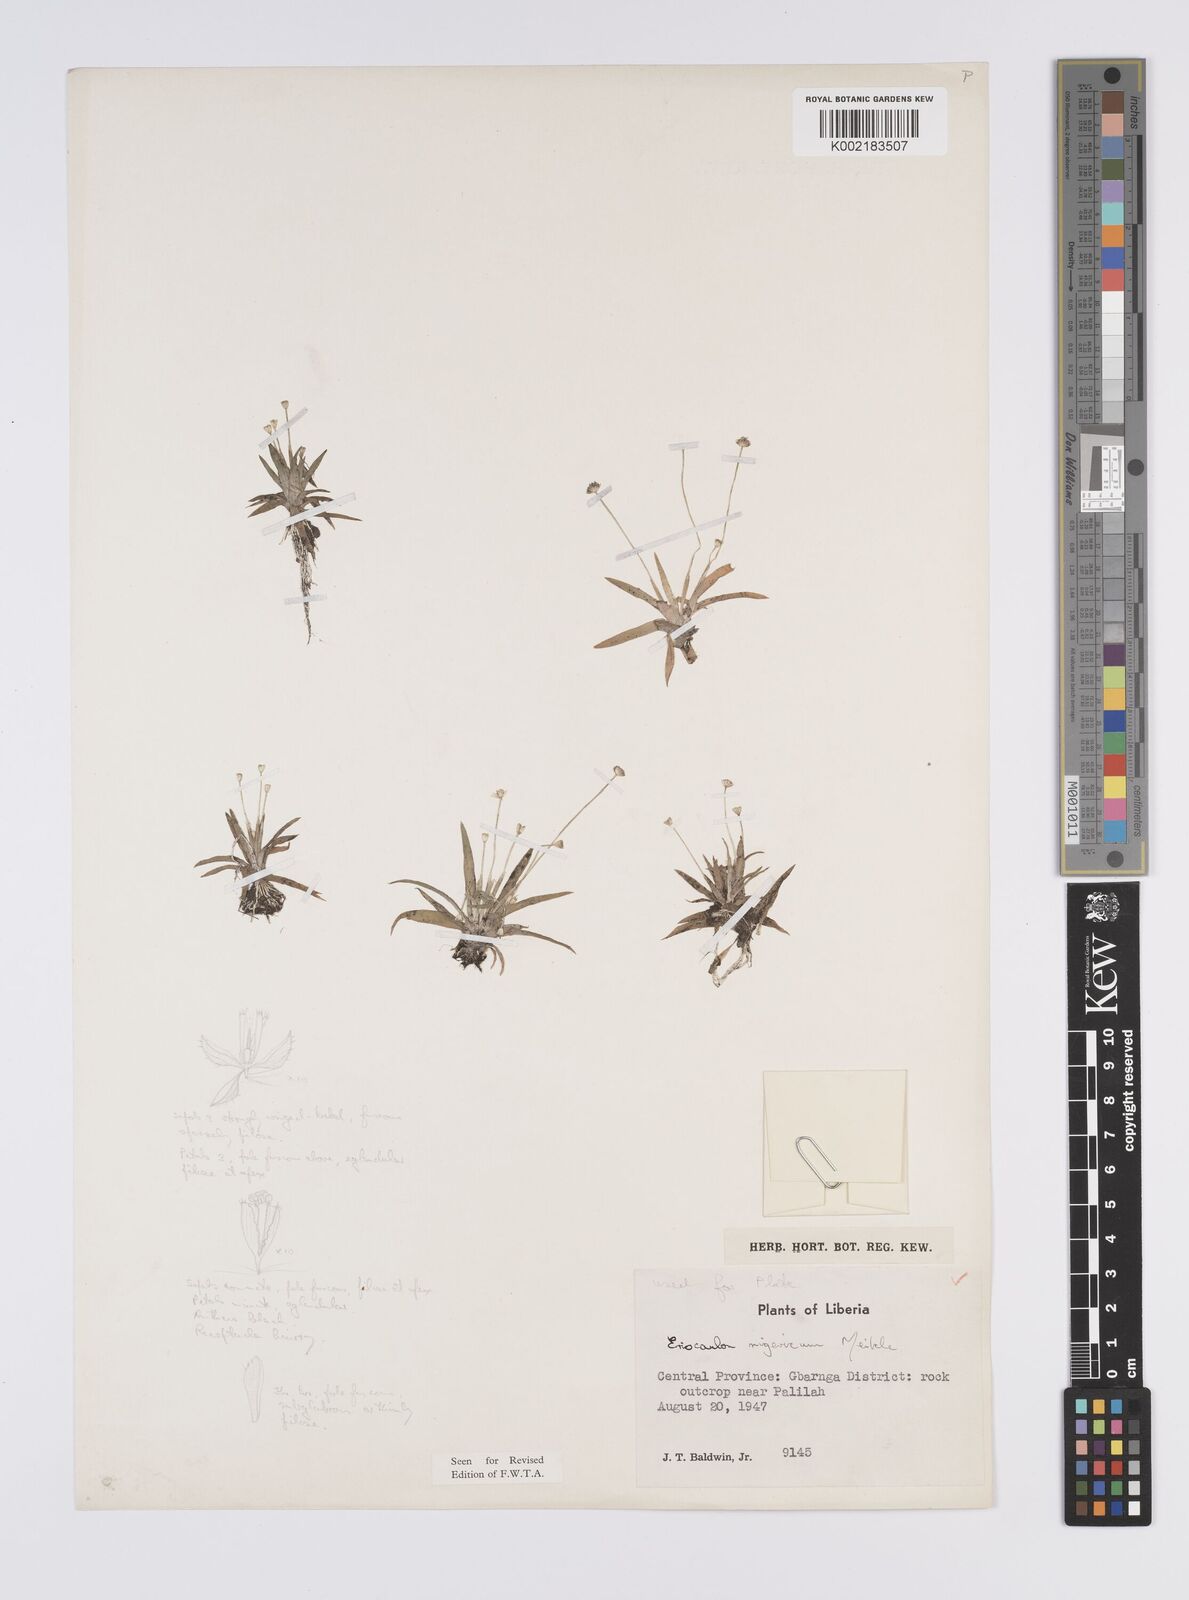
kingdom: Plantae
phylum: Tracheophyta
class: Liliopsida
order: Poales
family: Eriocaulaceae
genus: Eriocaulon
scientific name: Eriocaulon nigericum
